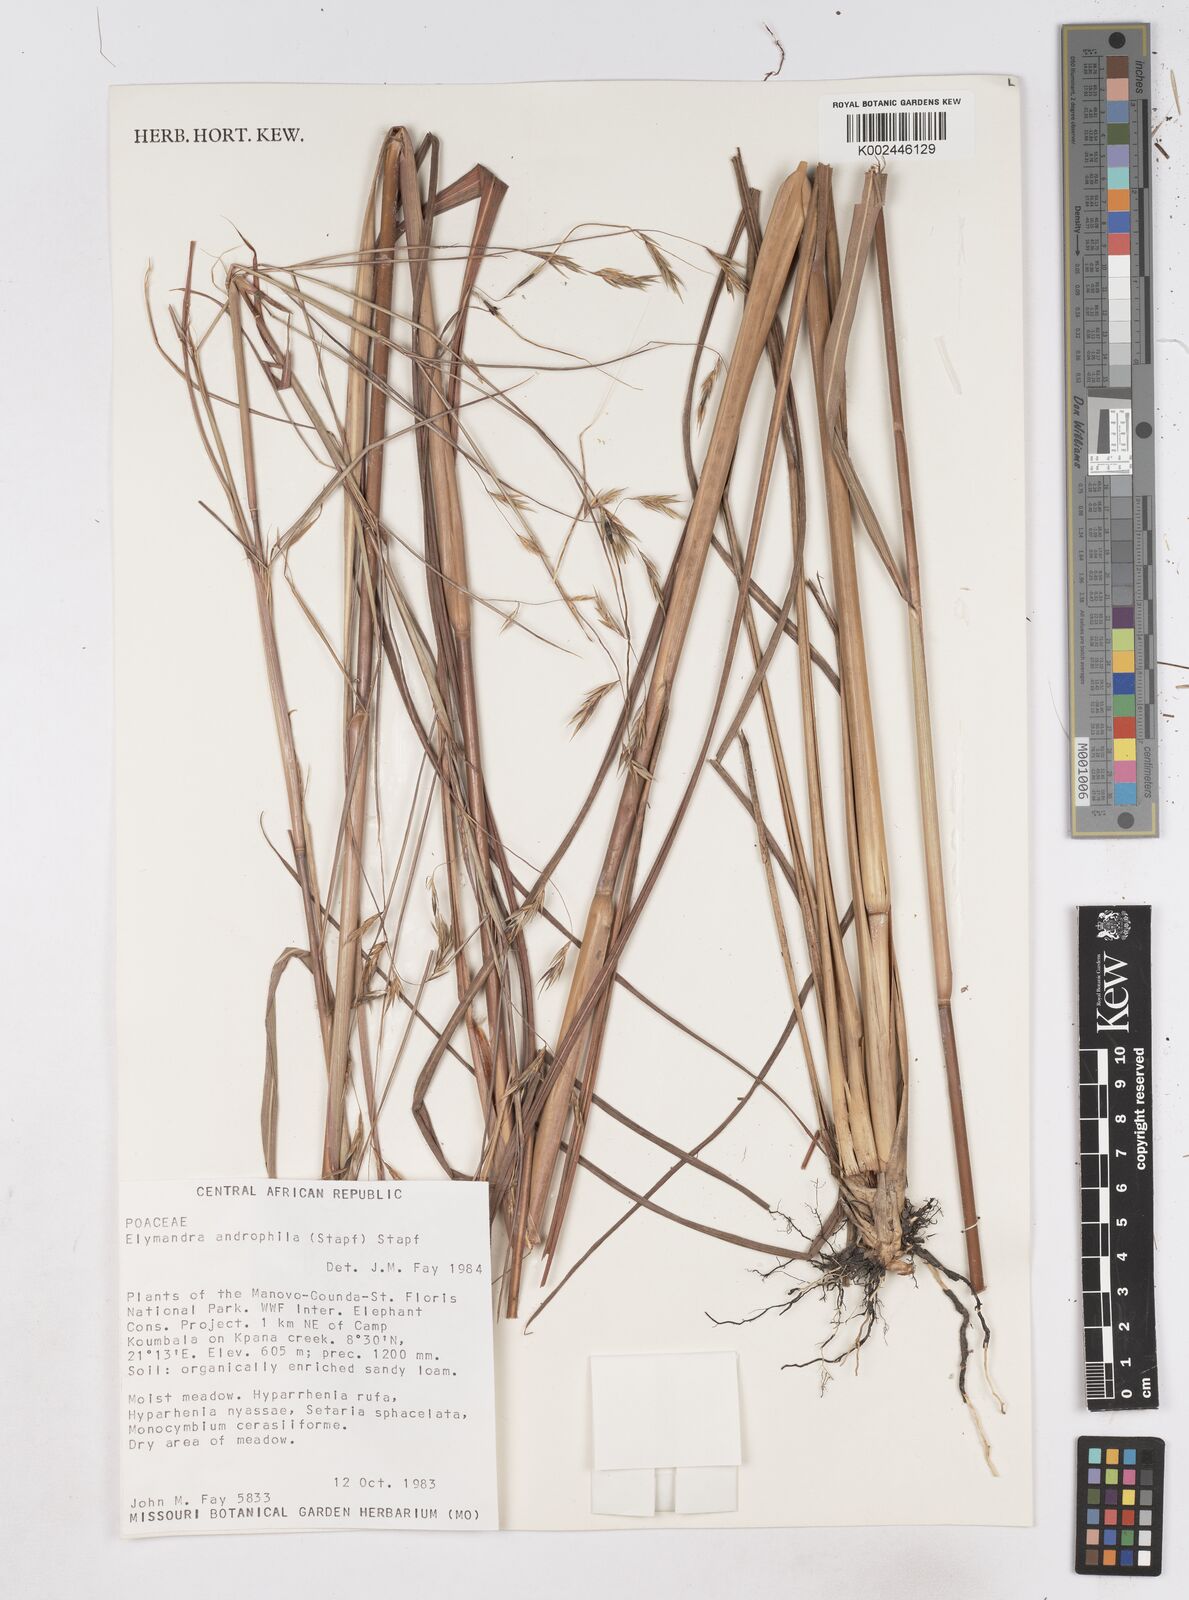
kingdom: Plantae
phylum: Tracheophyta
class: Liliopsida
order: Poales
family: Poaceae
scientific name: Poaceae
